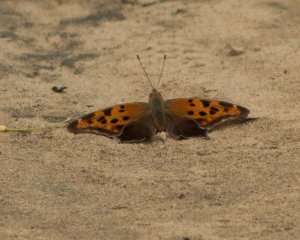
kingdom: Animalia
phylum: Arthropoda
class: Insecta
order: Lepidoptera
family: Nymphalidae
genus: Polygonia
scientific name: Polygonia interrogationis
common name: Question Mark
